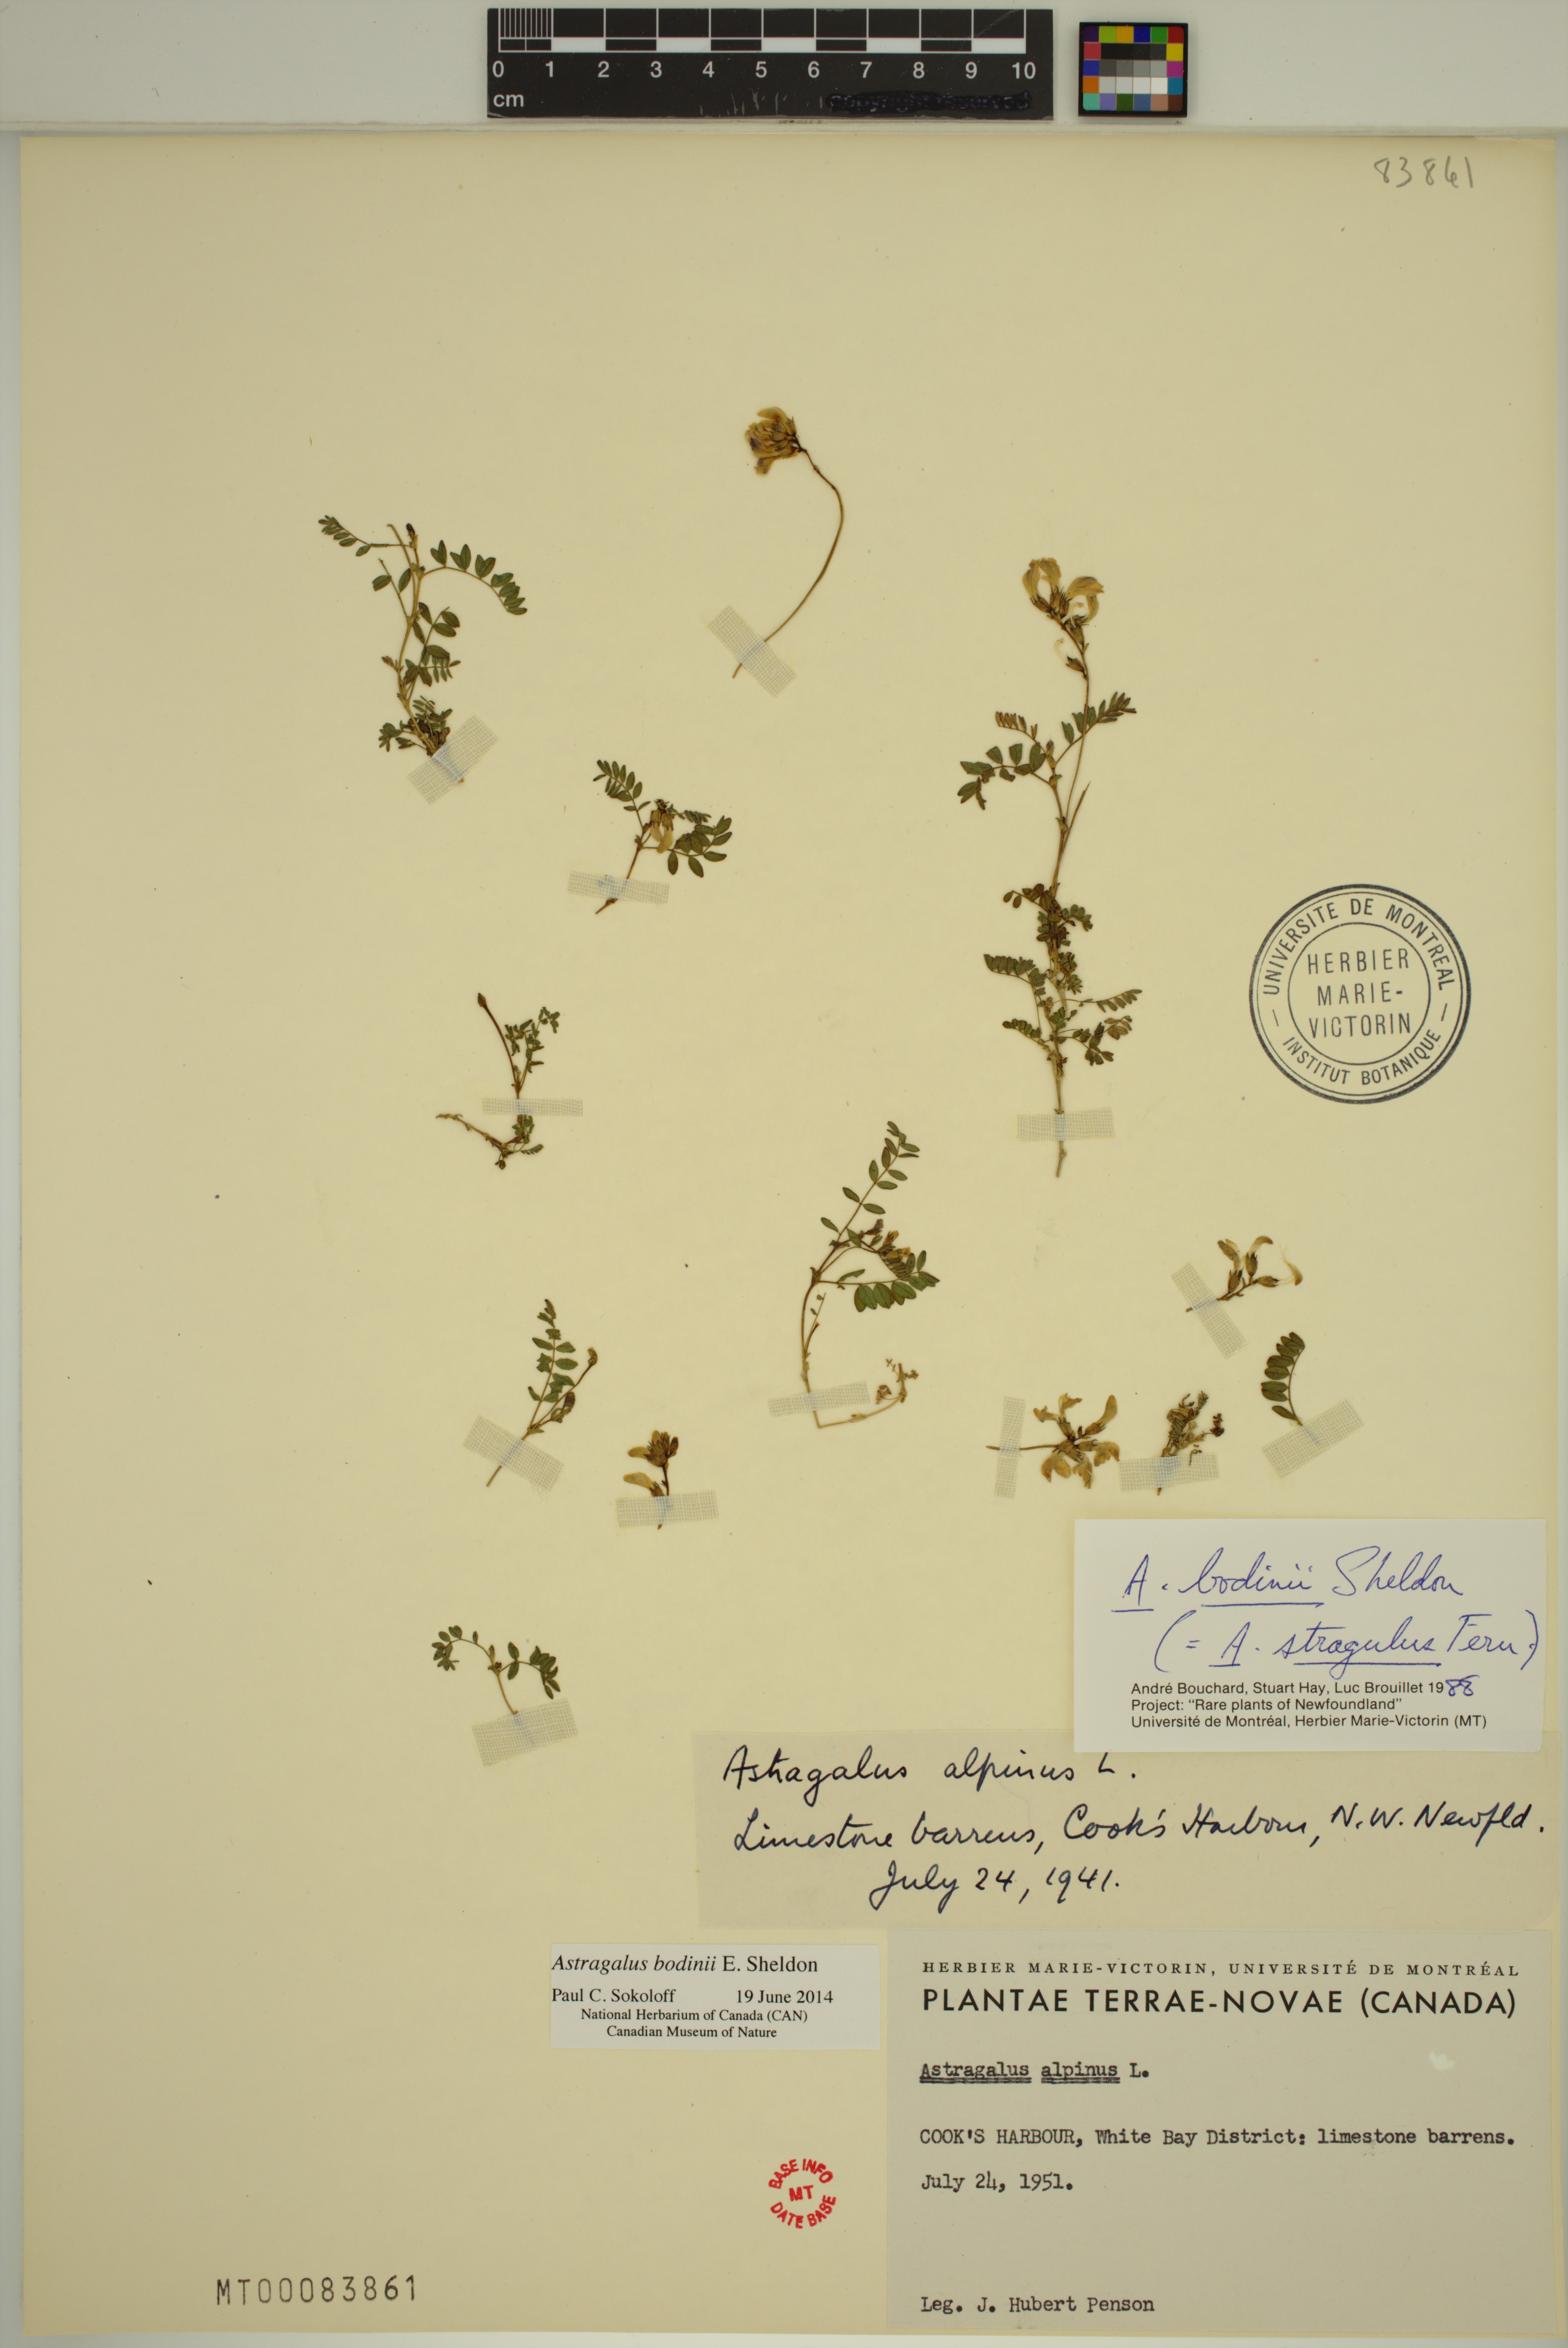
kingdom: Plantae
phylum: Tracheophyta
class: Magnoliopsida
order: Fabales
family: Fabaceae
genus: Astragalus
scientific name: Astragalus bodinii
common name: Bodin's milk-vetch
